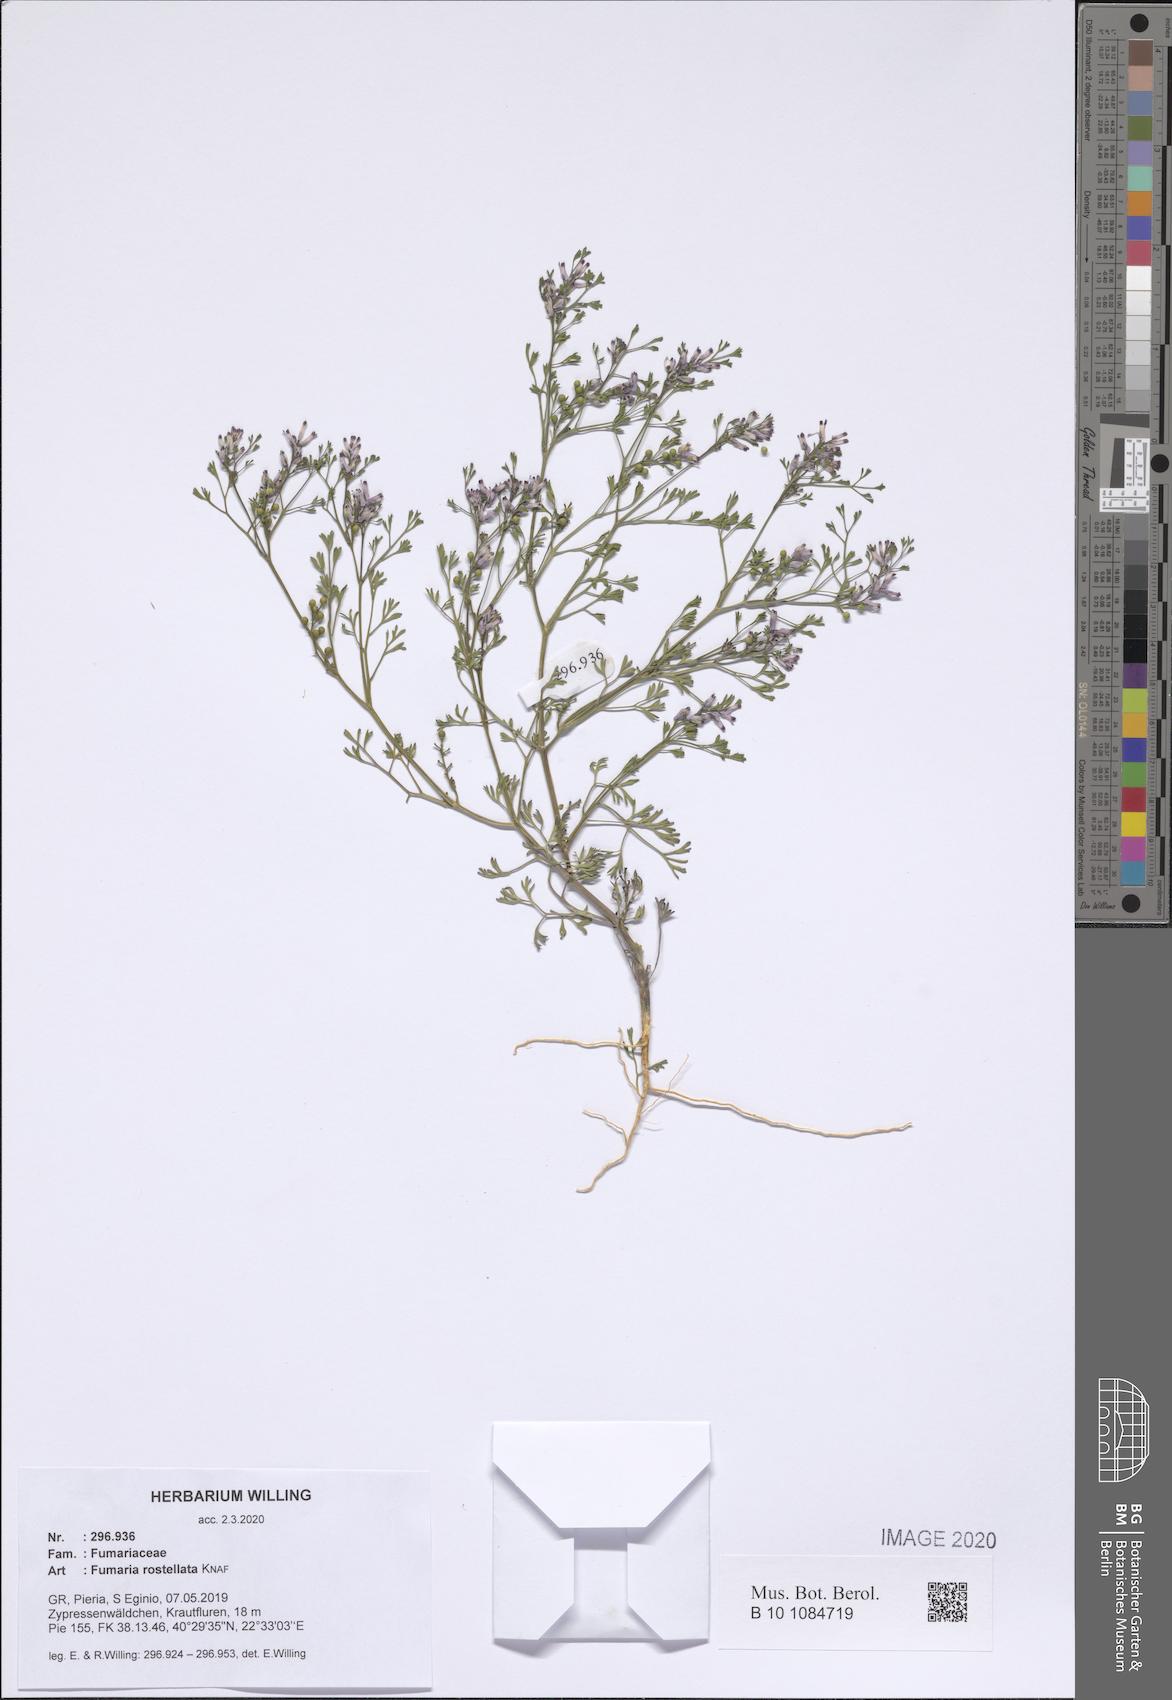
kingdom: Plantae
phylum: Tracheophyta
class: Magnoliopsida
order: Ranunculales
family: Papaveraceae
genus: Fumaria
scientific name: Fumaria rostellata
